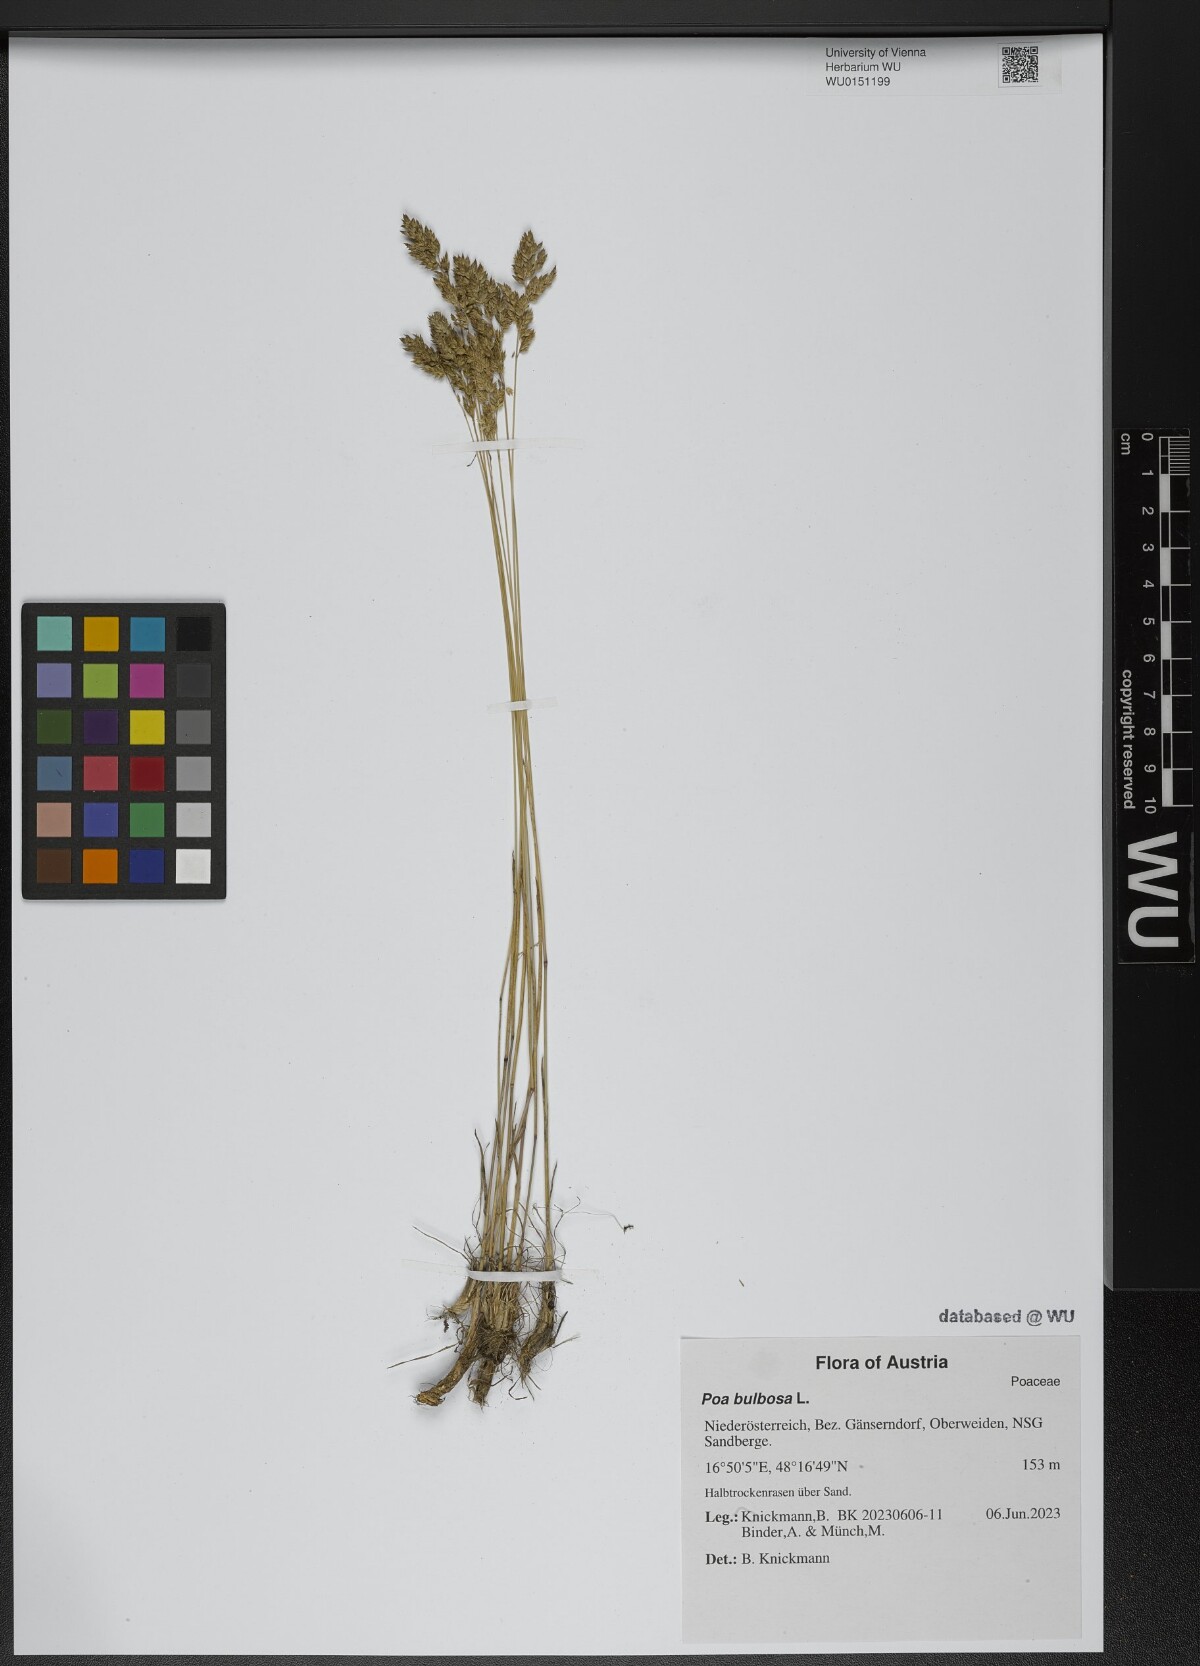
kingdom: Plantae
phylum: Tracheophyta
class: Liliopsida
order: Poales
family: Poaceae
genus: Poa
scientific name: Poa bulbosa
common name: Bulbous bluegrass
